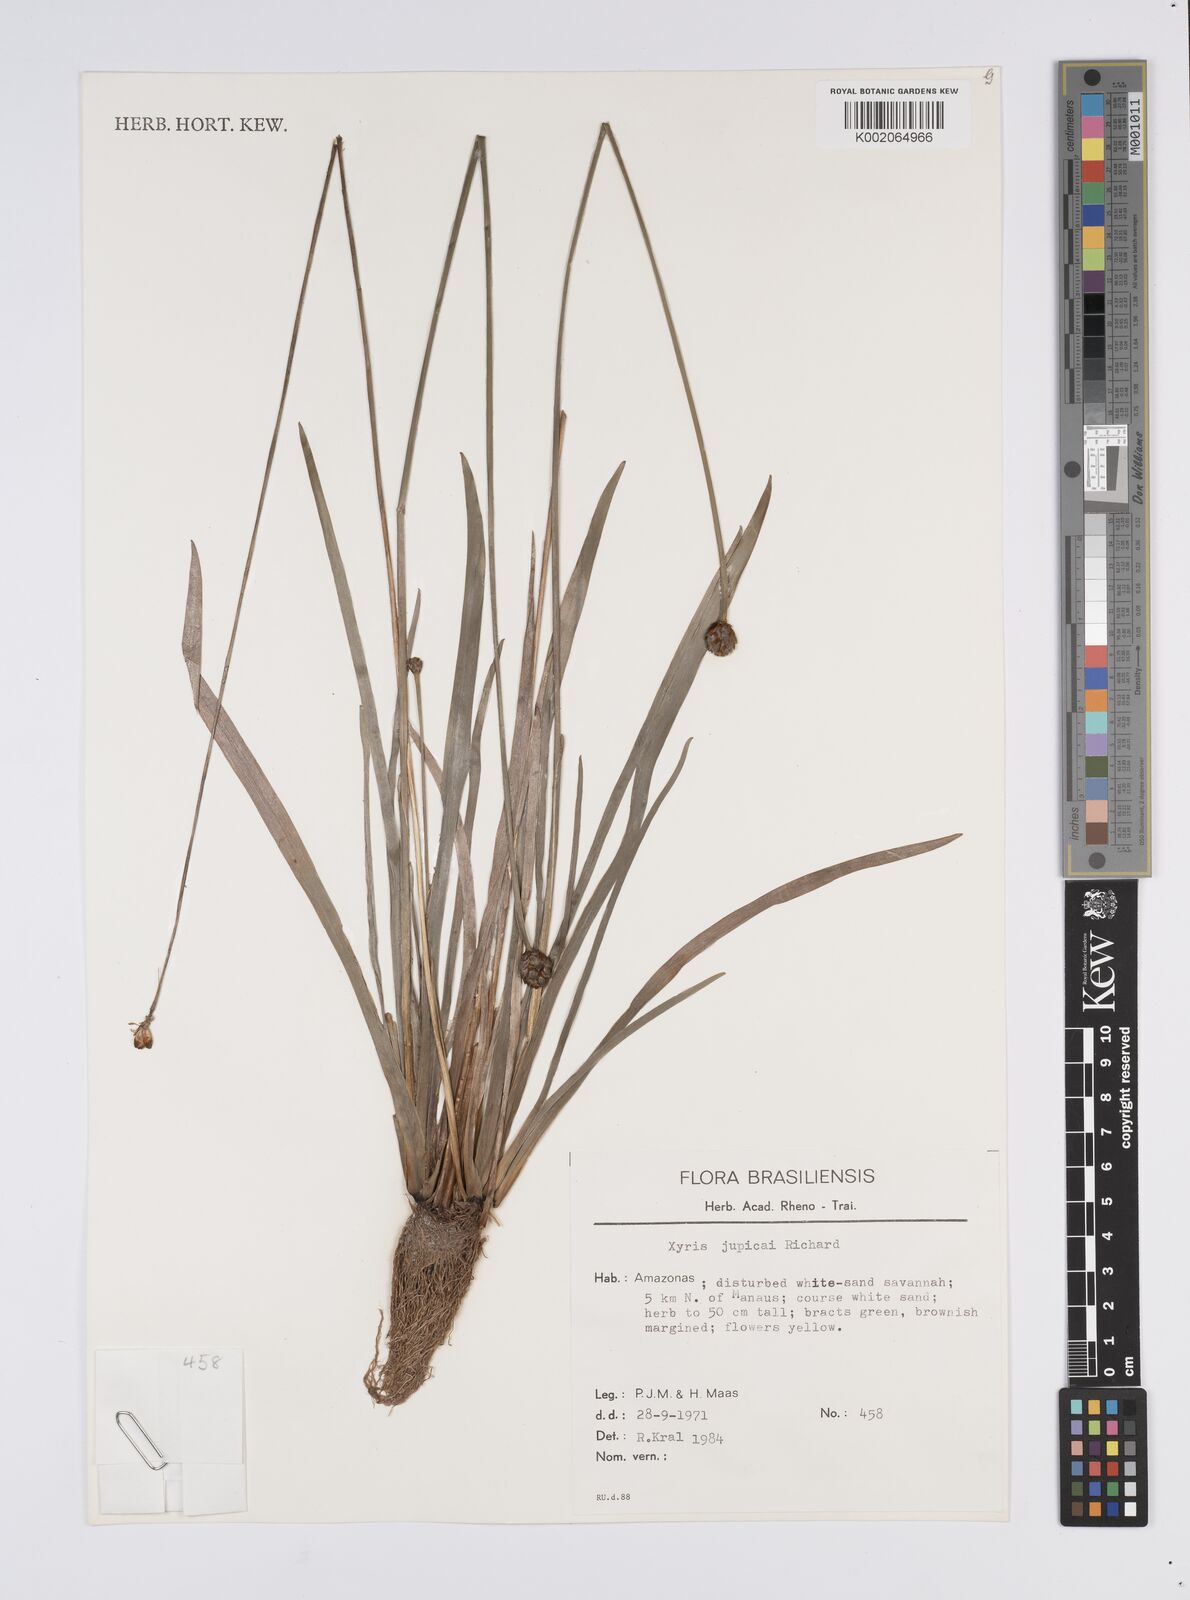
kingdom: Plantae
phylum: Tracheophyta
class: Liliopsida
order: Poales
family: Xyridaceae
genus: Xyris
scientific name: Xyris jupicai
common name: Richard's yelloweyed grass
